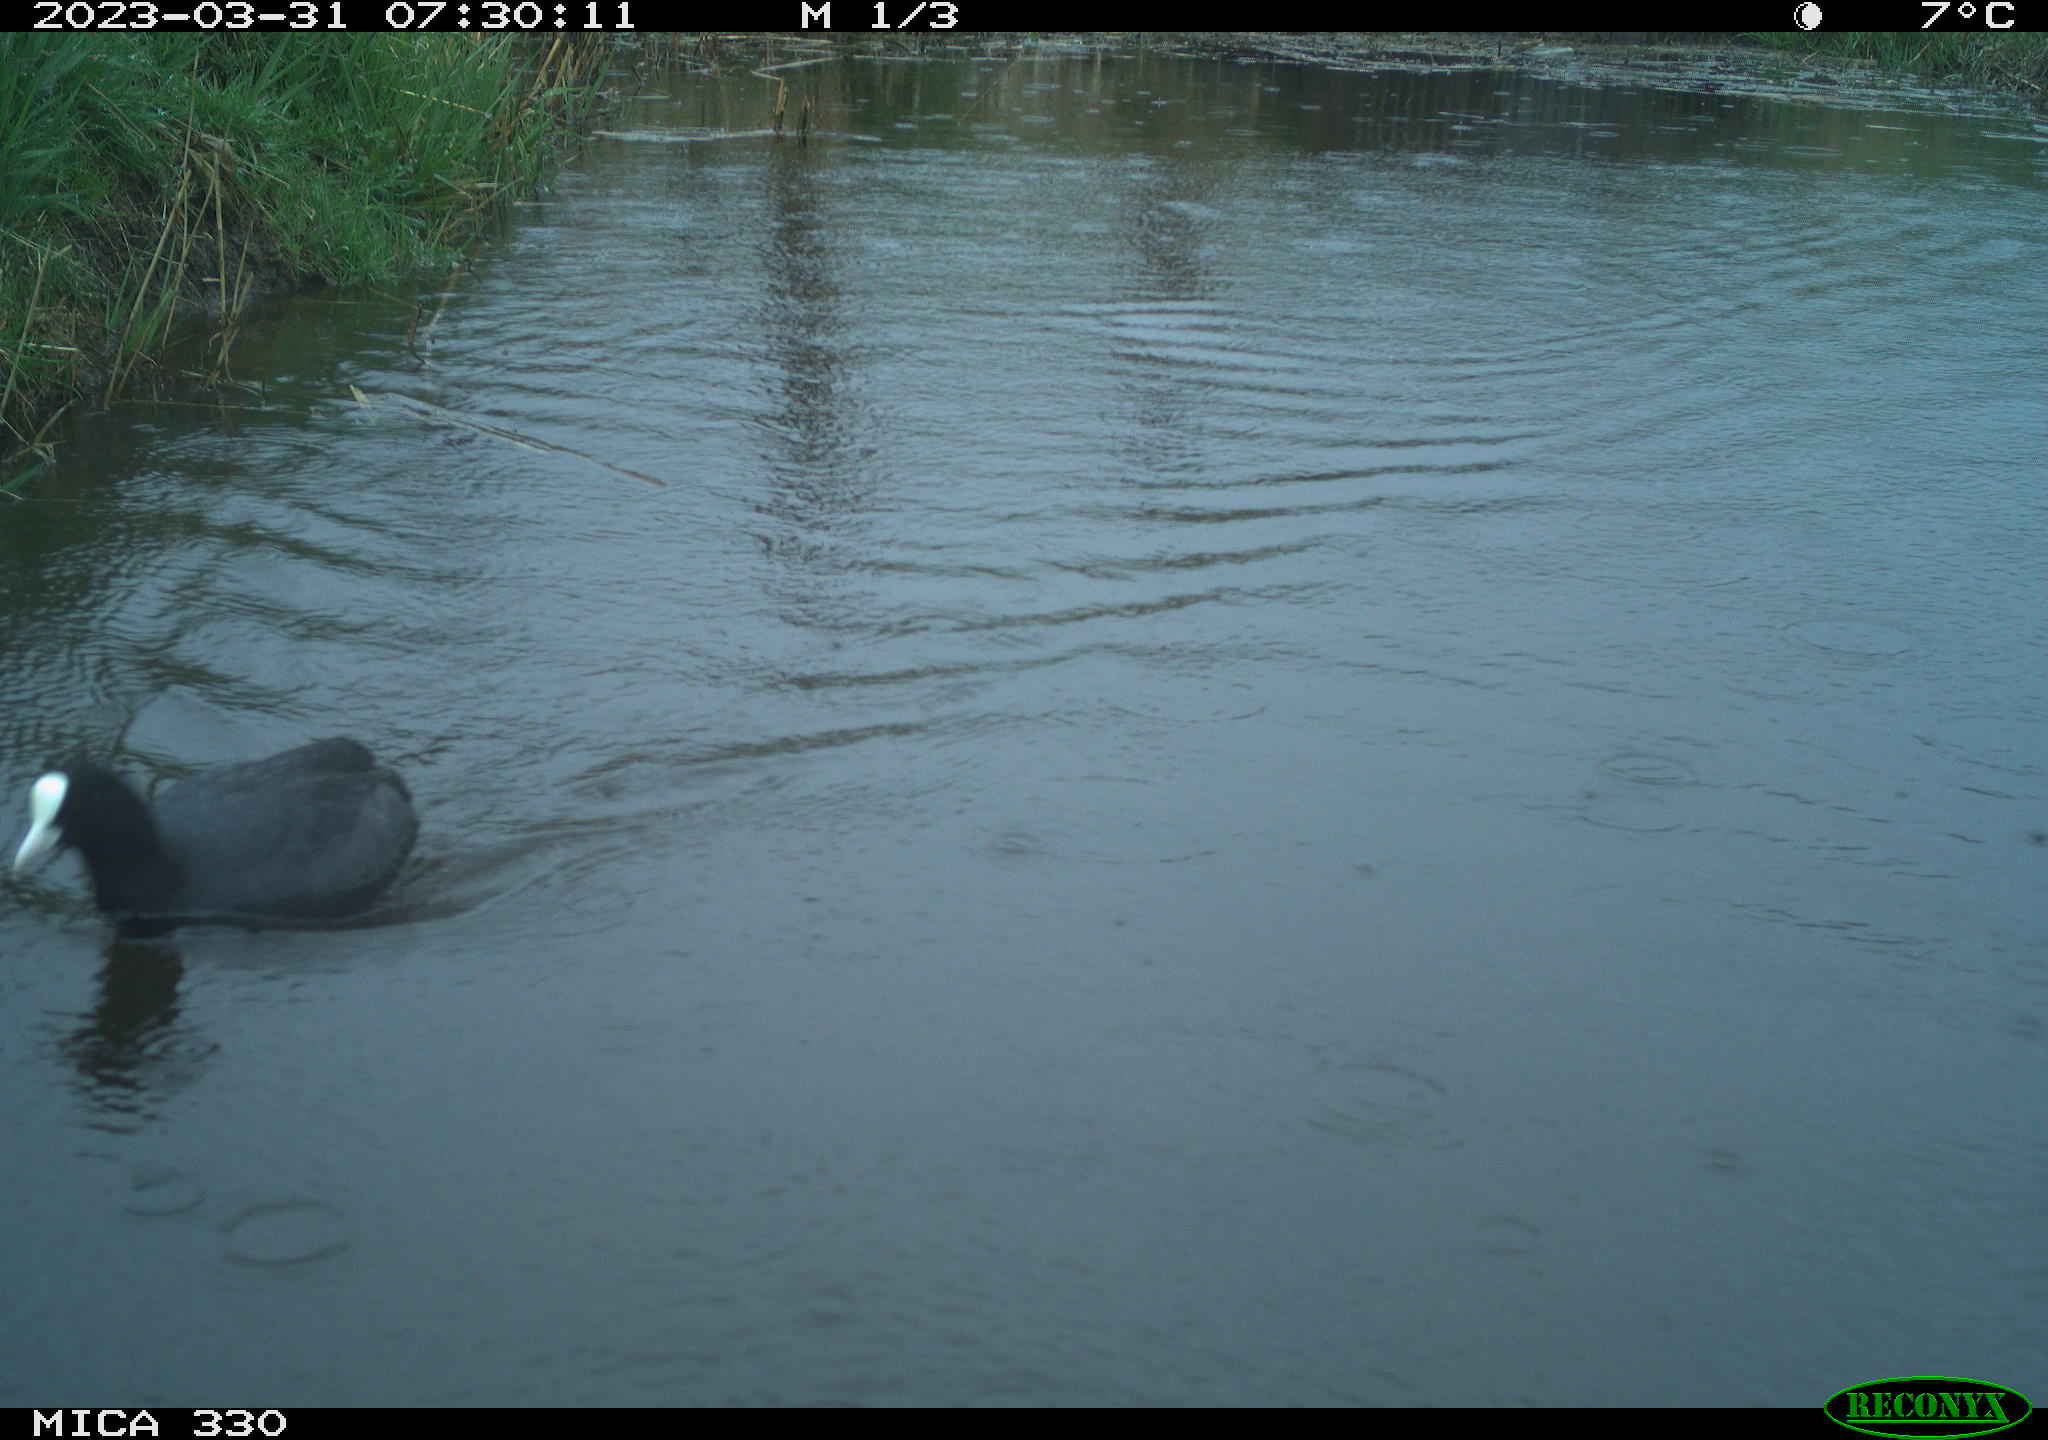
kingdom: Animalia
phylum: Chordata
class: Aves
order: Gruiformes
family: Rallidae
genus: Fulica
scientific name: Fulica atra
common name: Eurasian coot
